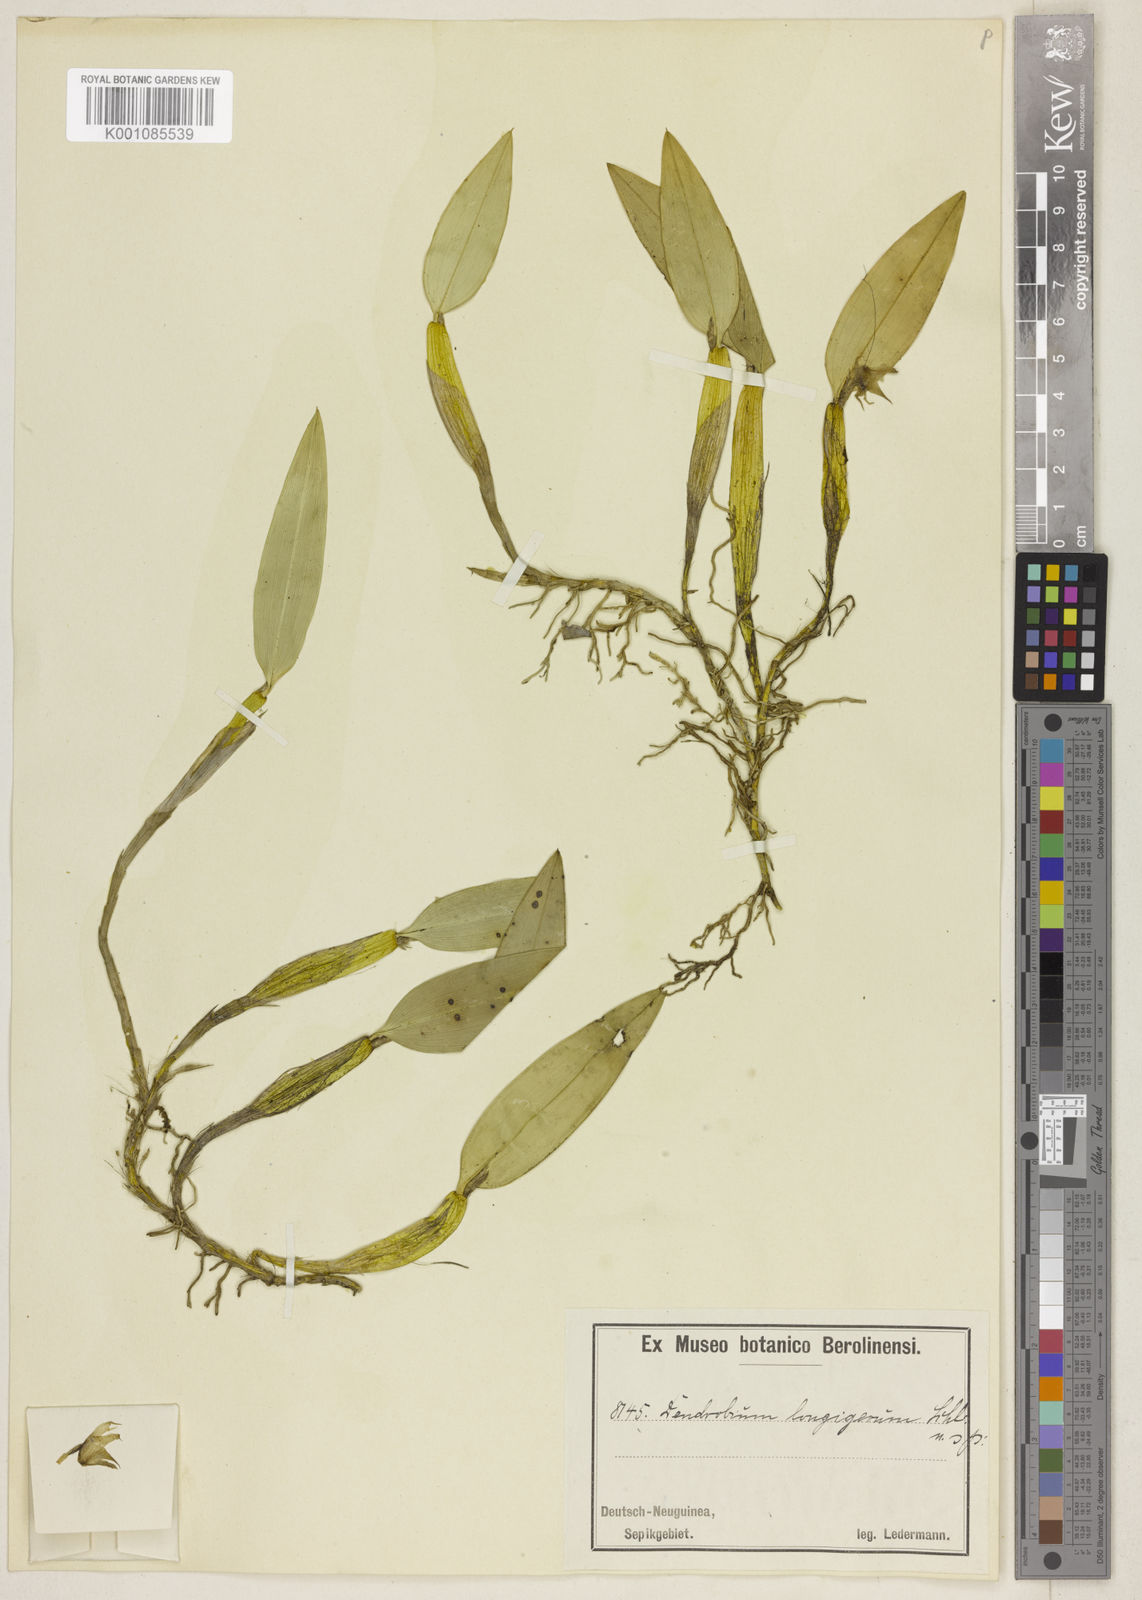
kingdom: Plantae
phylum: Tracheophyta
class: Liliopsida
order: Asparagales
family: Orchidaceae
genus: Dendrobium
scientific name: Dendrobium lonchigerum
